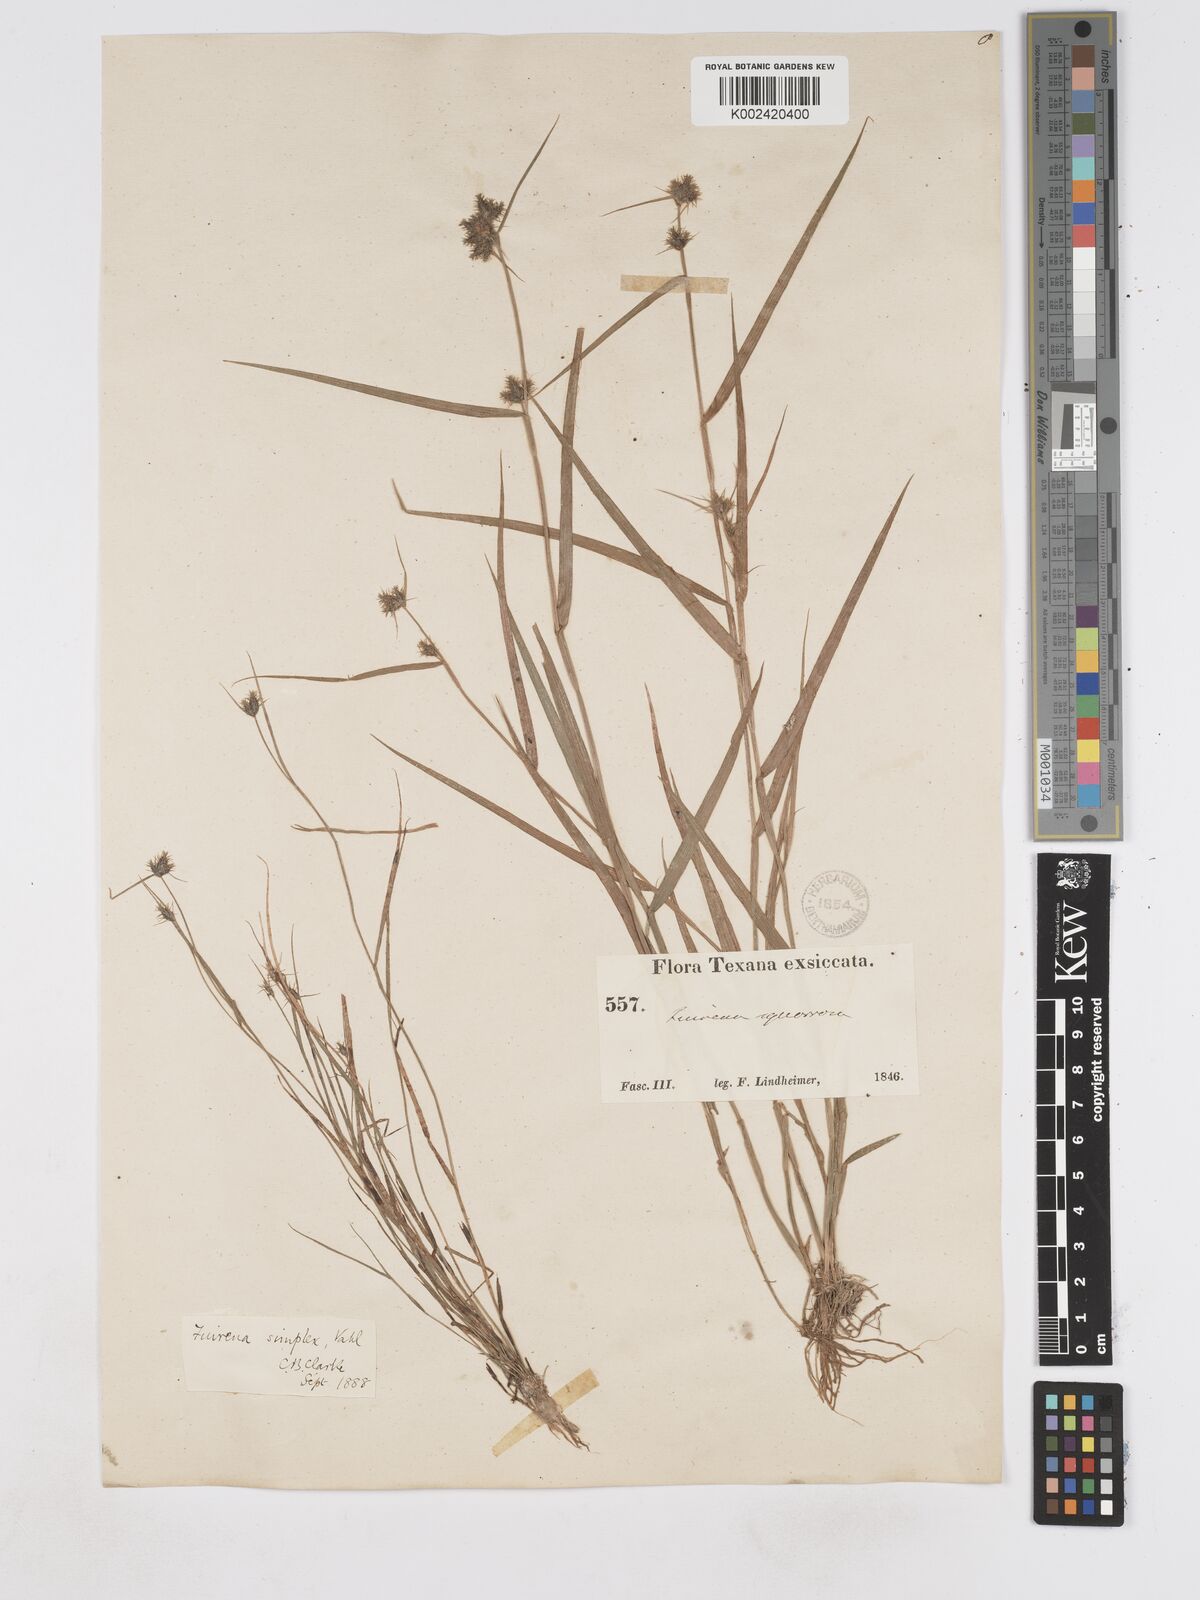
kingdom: Plantae
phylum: Tracheophyta
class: Liliopsida
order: Poales
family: Cyperaceae
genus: Fuirena
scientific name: Fuirena simplex
